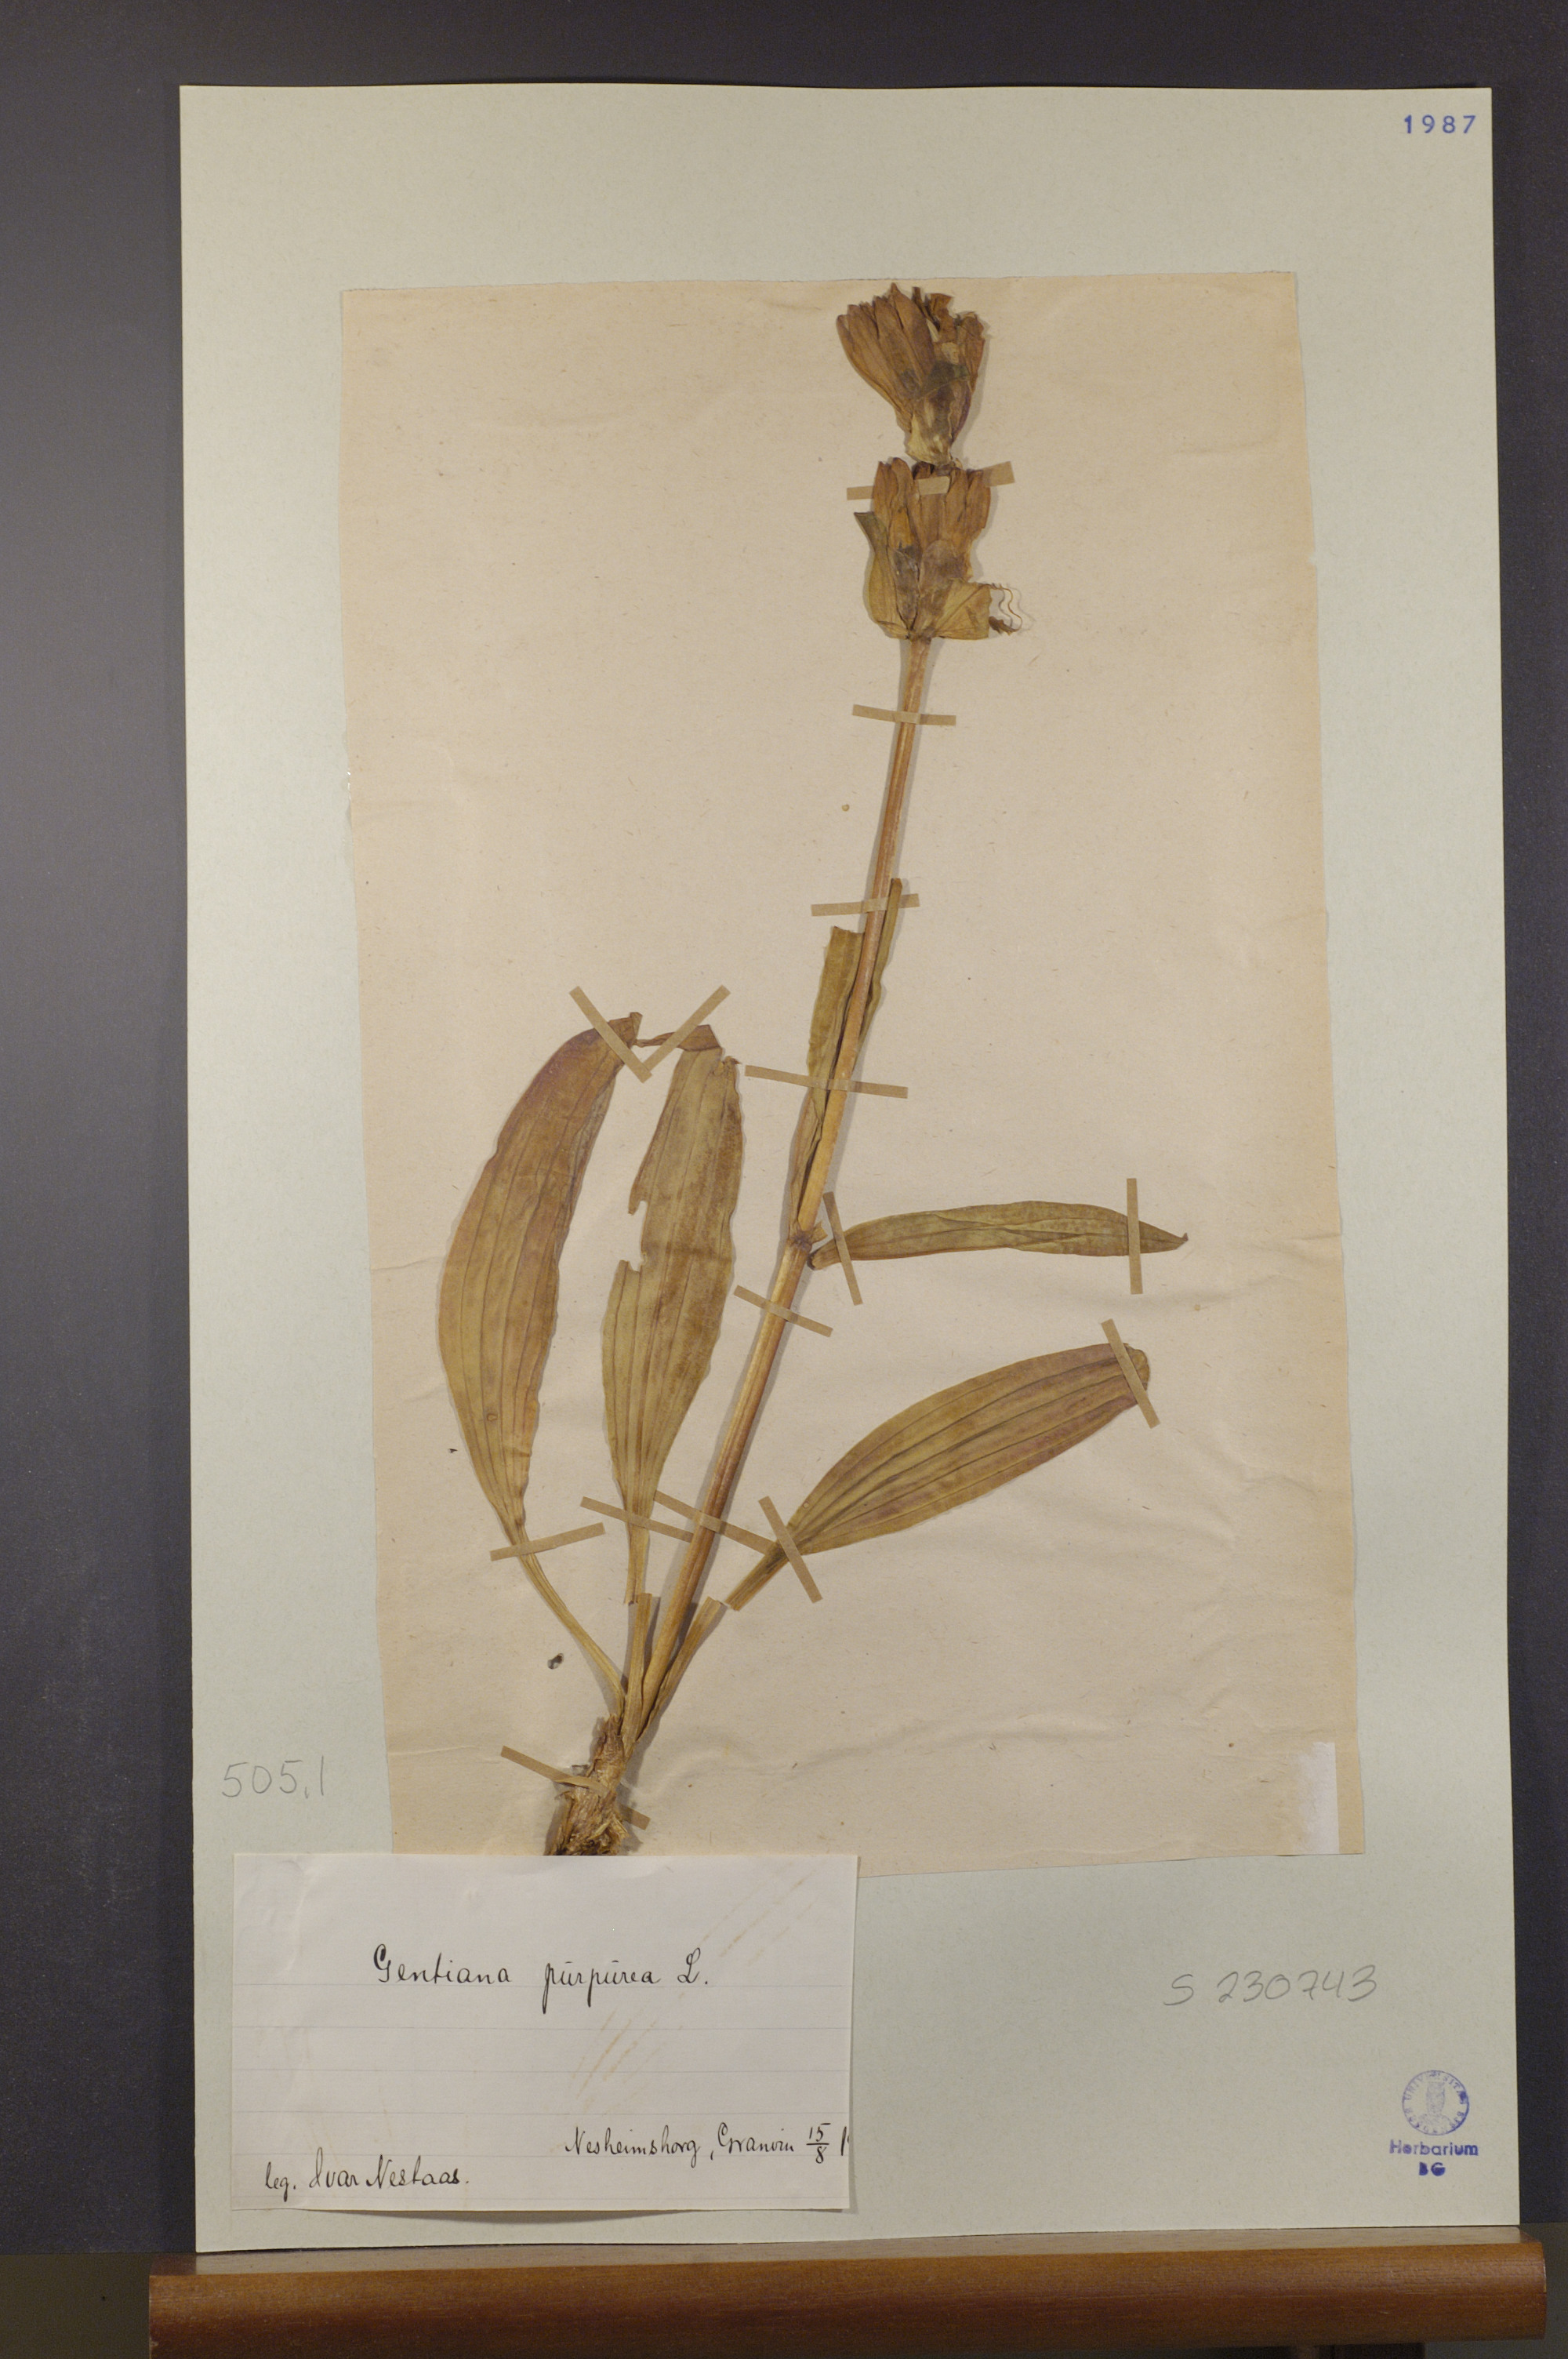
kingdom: Plantae
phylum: Tracheophyta
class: Magnoliopsida
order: Gentianales
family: Gentianaceae
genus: Gentiana
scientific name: Gentiana purpurea
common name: Purple gentian
